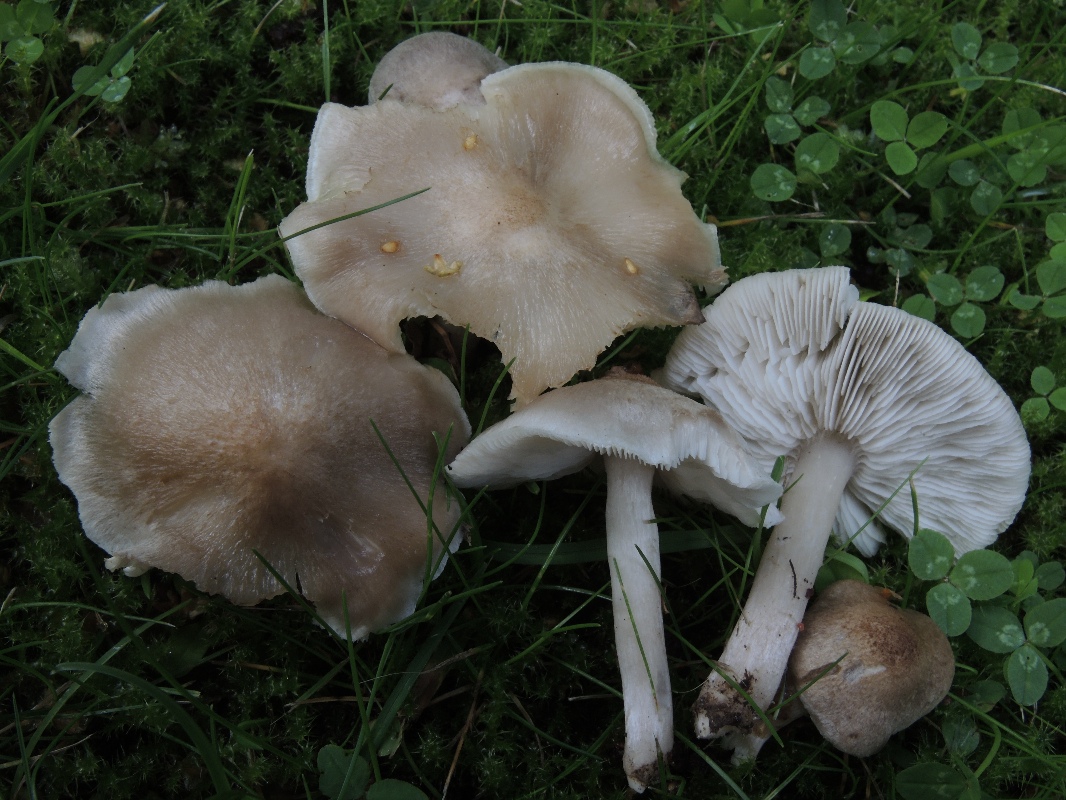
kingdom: Fungi
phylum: Basidiomycota
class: Agaricomycetes
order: Agaricales
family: Tricholomataceae
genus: Tricholoma
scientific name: Tricholoma argyraceum
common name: spids ridderhat
